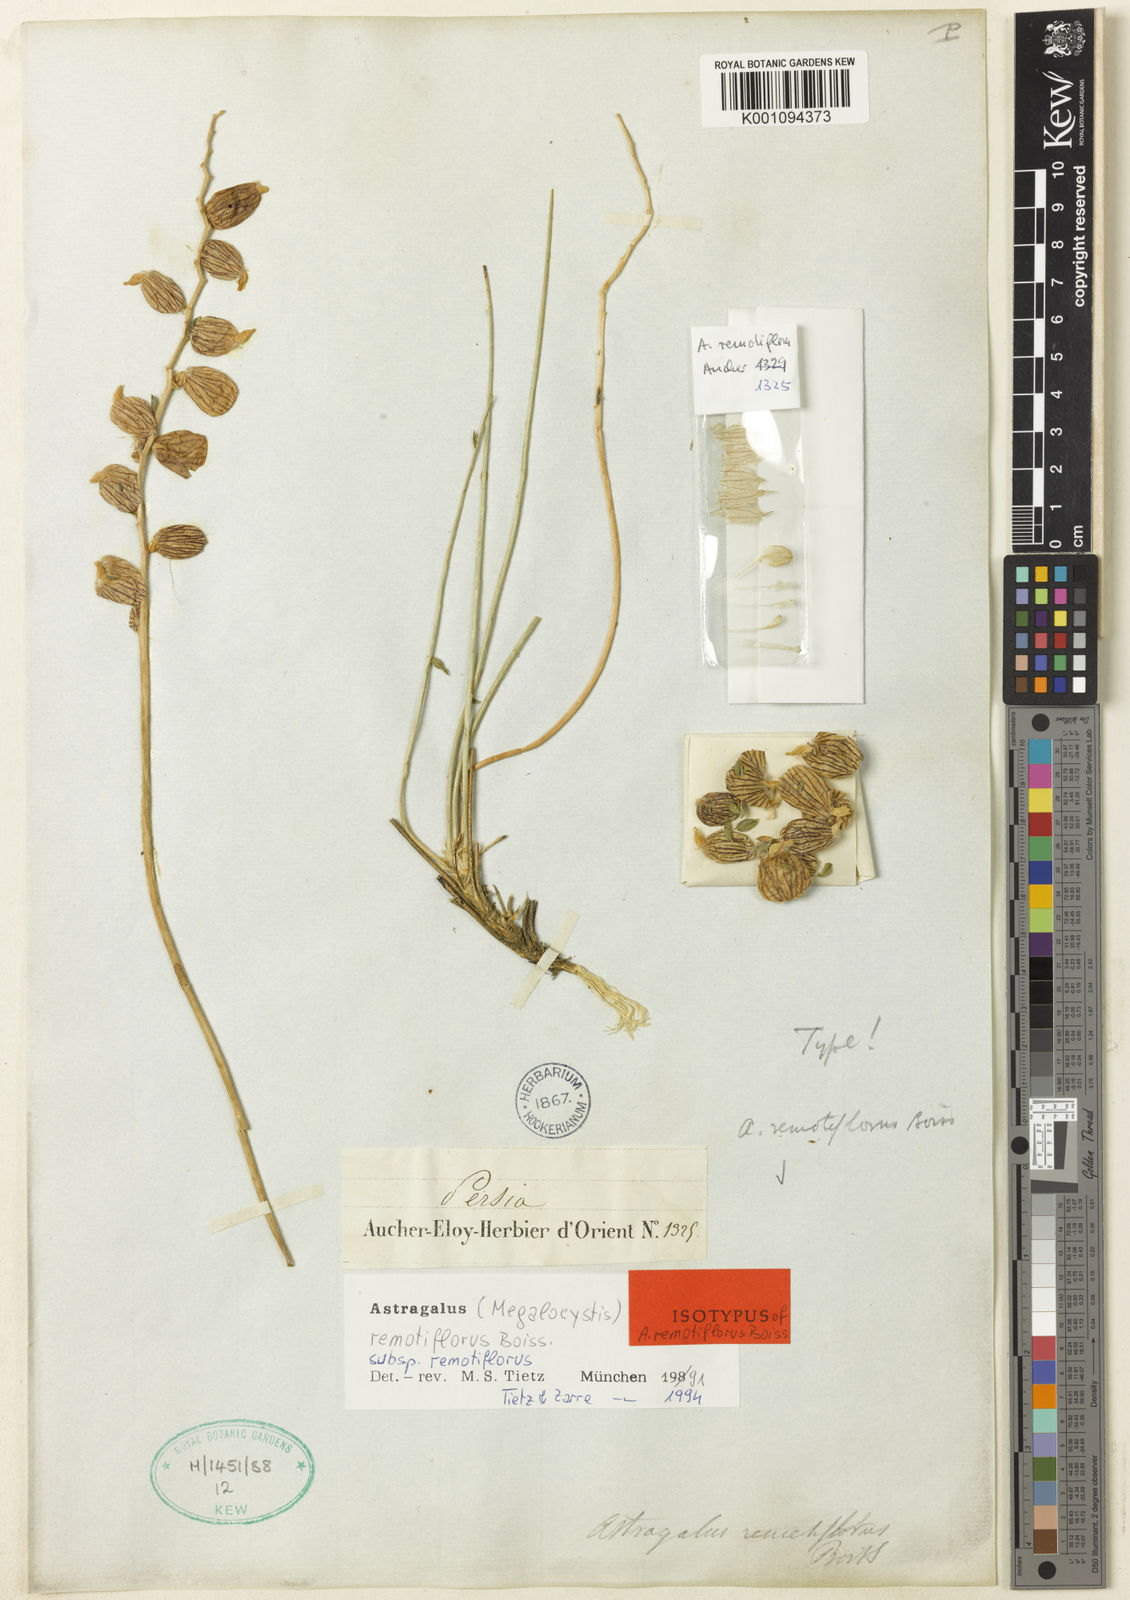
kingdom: Plantae
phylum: Tracheophyta
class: Magnoliopsida
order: Fabales
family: Fabaceae
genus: Astragalus
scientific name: Astragalus
